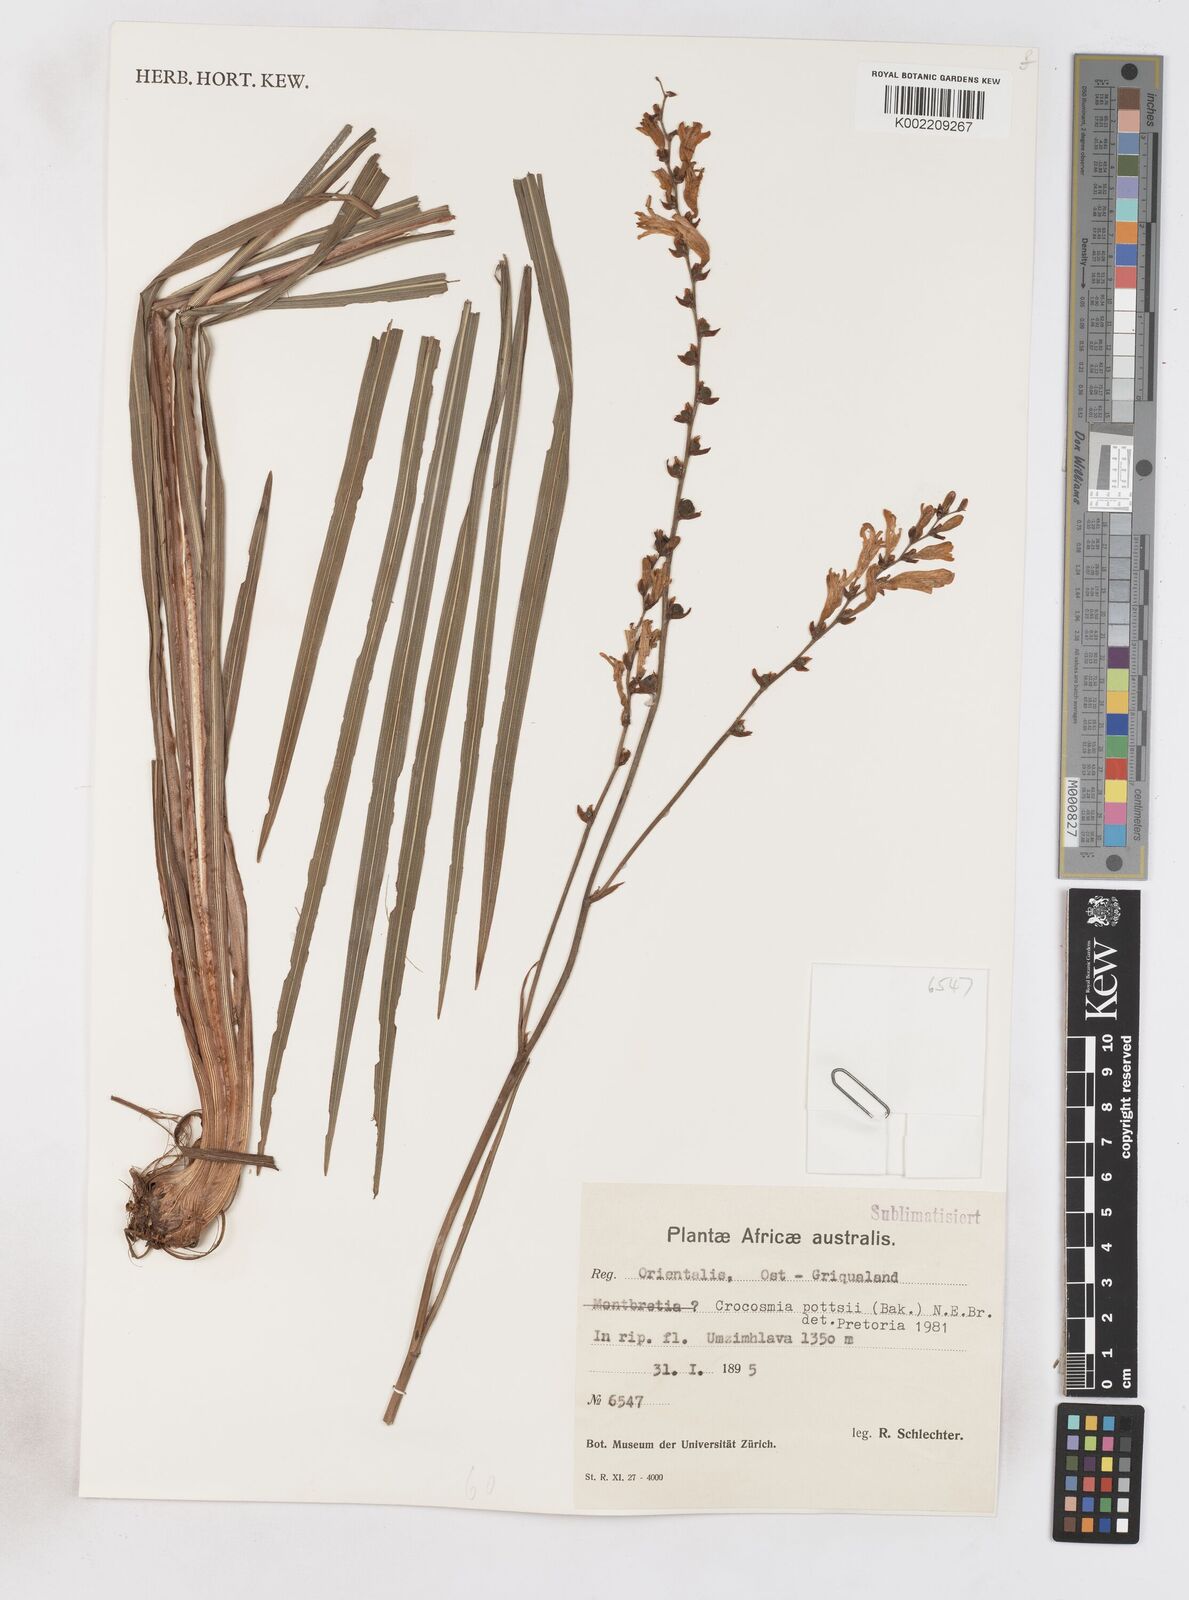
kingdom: Plantae
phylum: Tracheophyta
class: Liliopsida
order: Asparagales
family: Iridaceae
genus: Crocosmia
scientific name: Crocosmia pottsii
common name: Pott's montbretia
